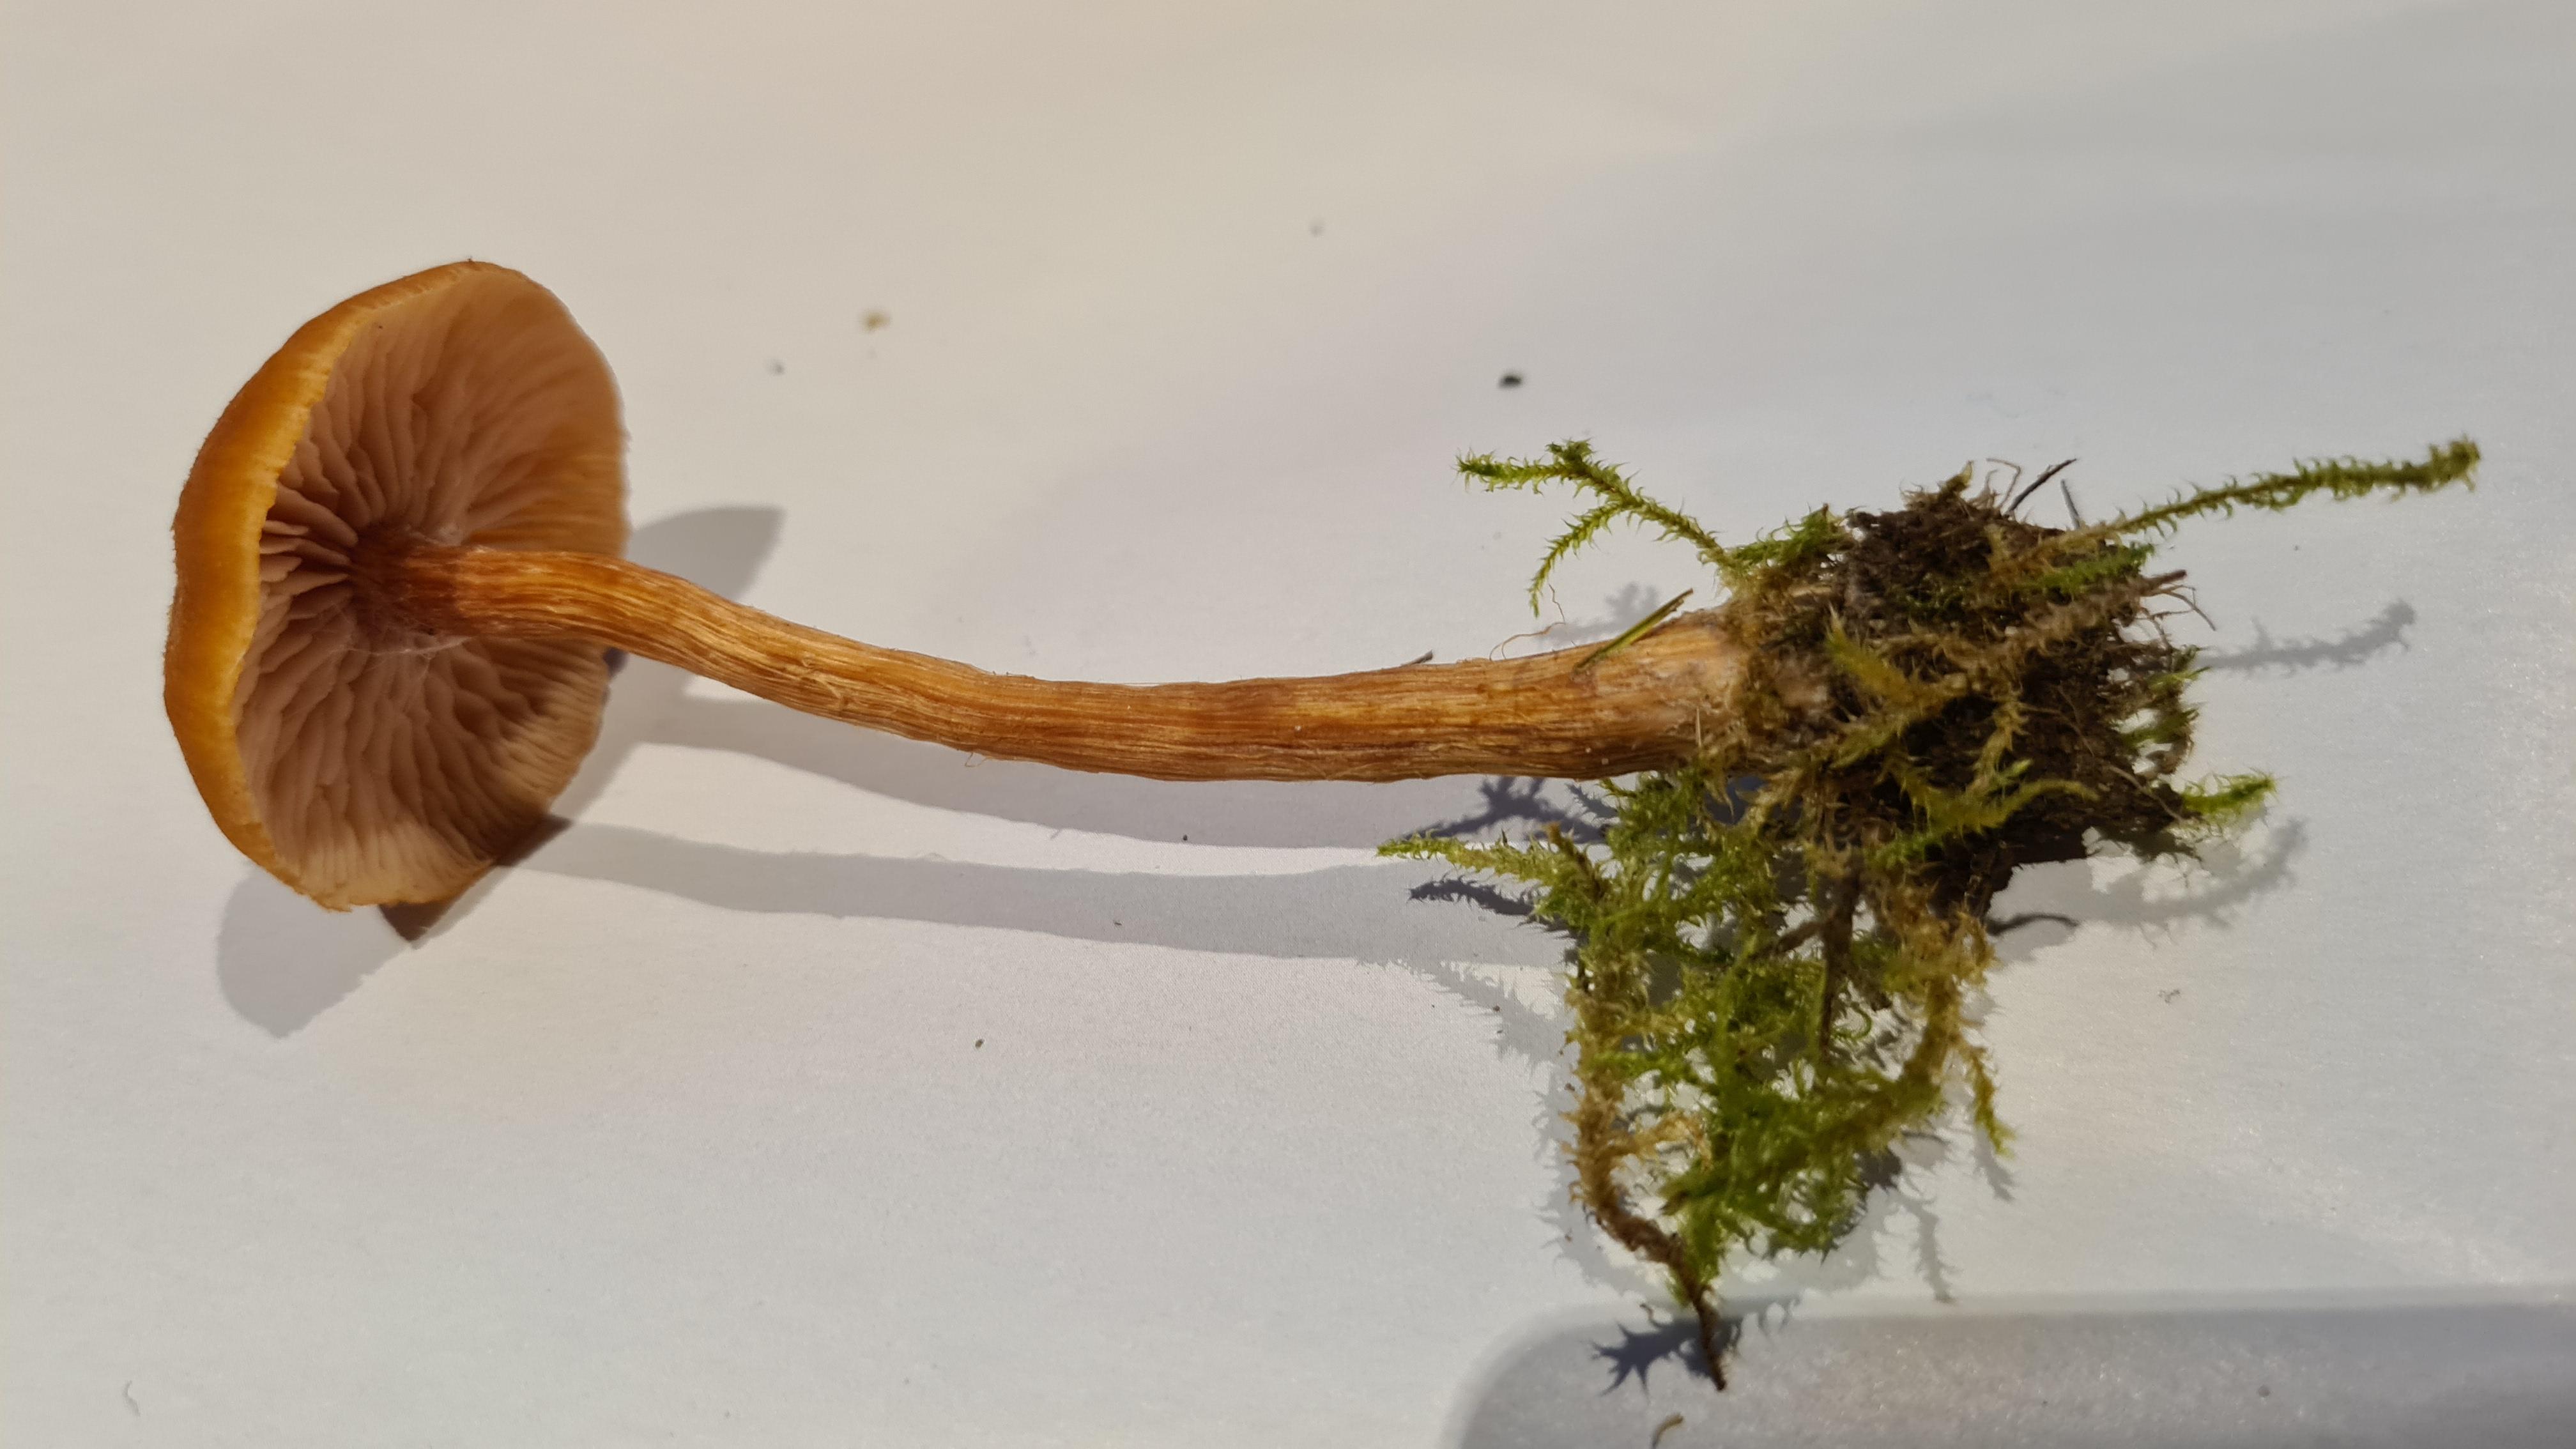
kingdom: Fungi
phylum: Basidiomycota
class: Agaricomycetes
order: Agaricales
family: Hydnangiaceae
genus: Laccaria
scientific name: Laccaria proxima
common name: stor ametysthat
